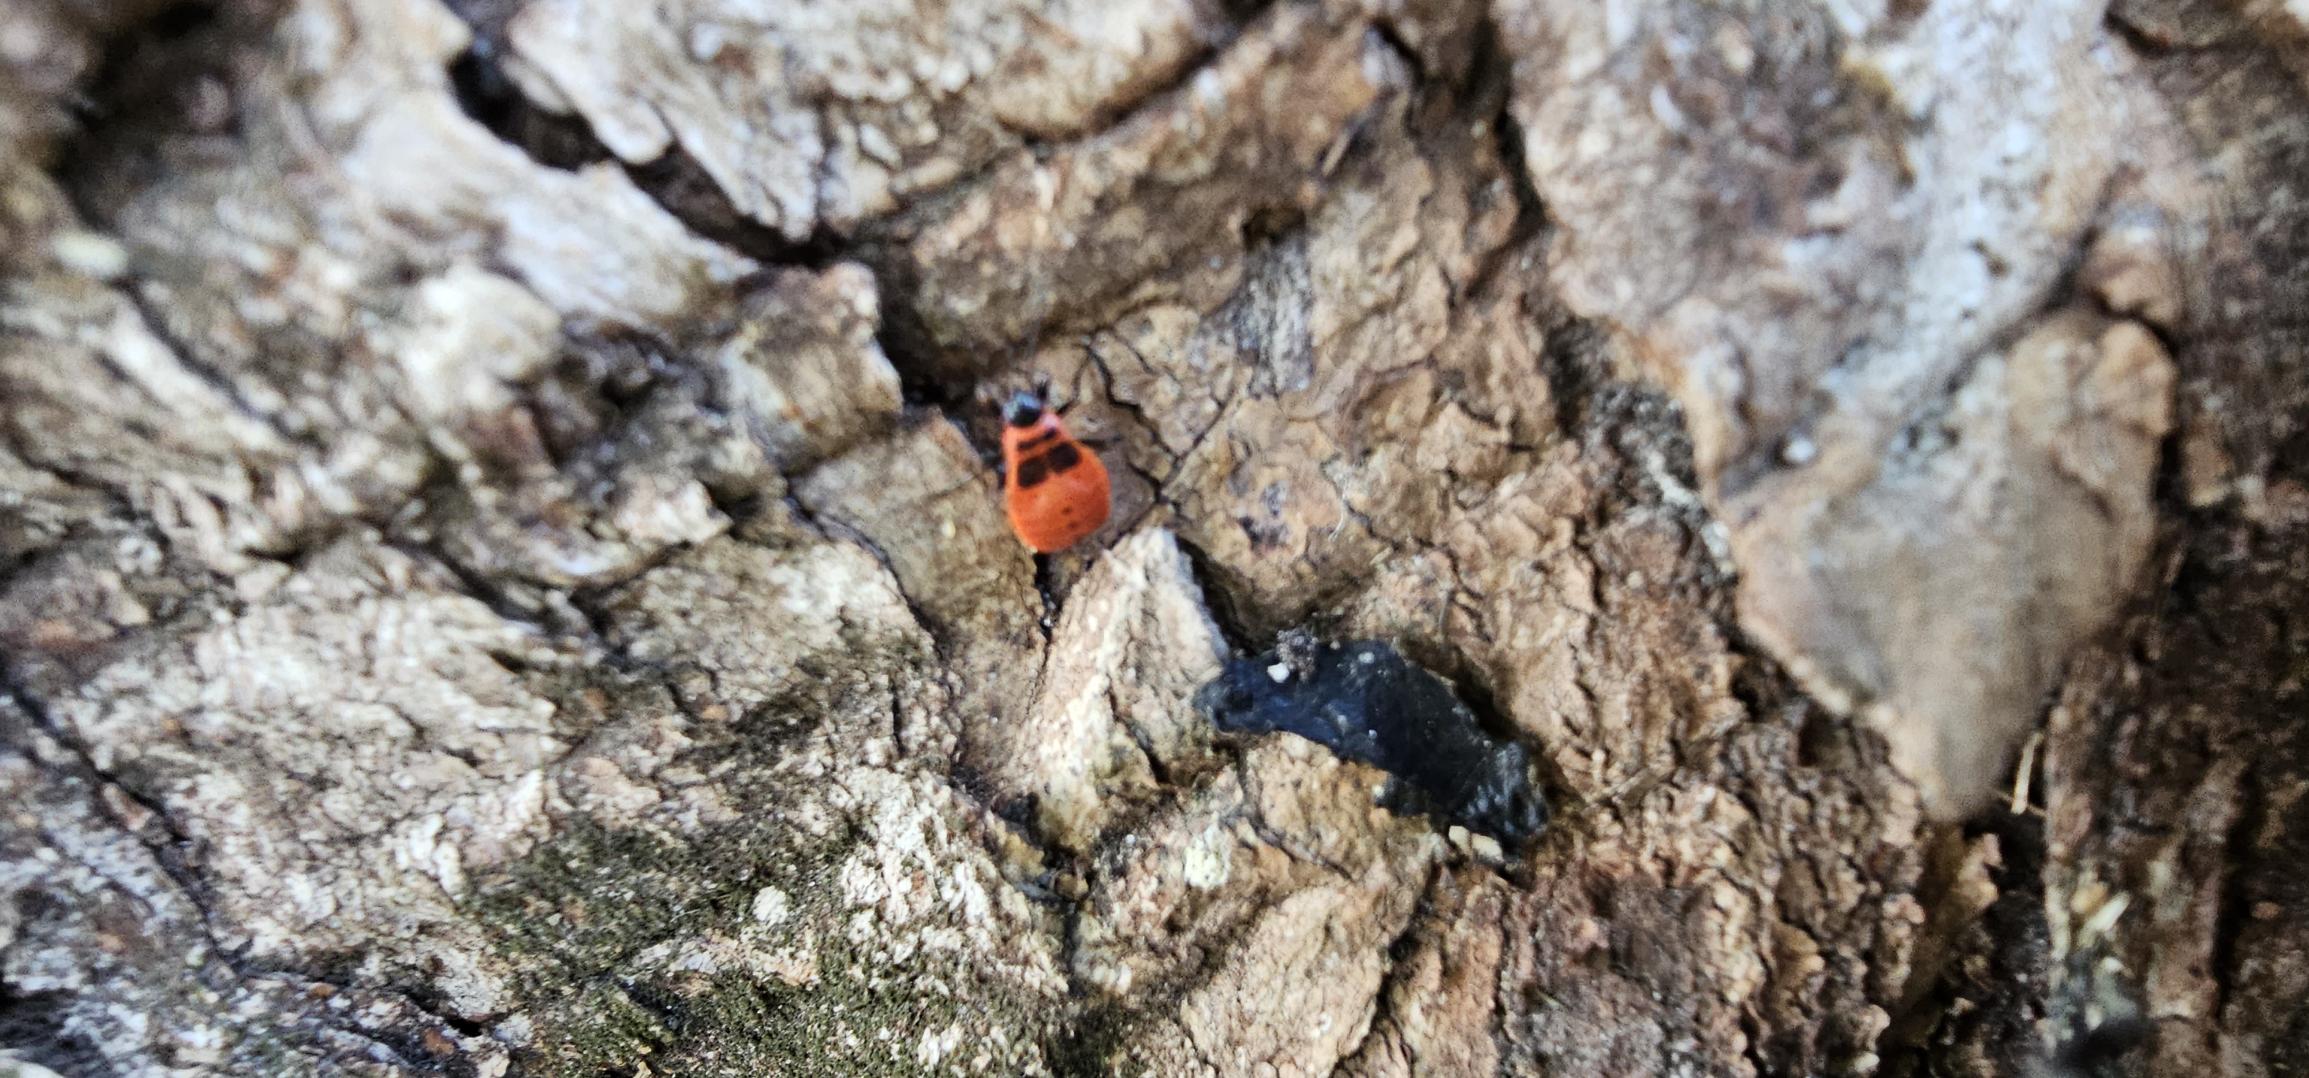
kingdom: Animalia
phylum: Arthropoda
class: Insecta
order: Hemiptera
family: Pyrrhocoridae
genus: Pyrrhocoris
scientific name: Pyrrhocoris apterus
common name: Ildtæge
